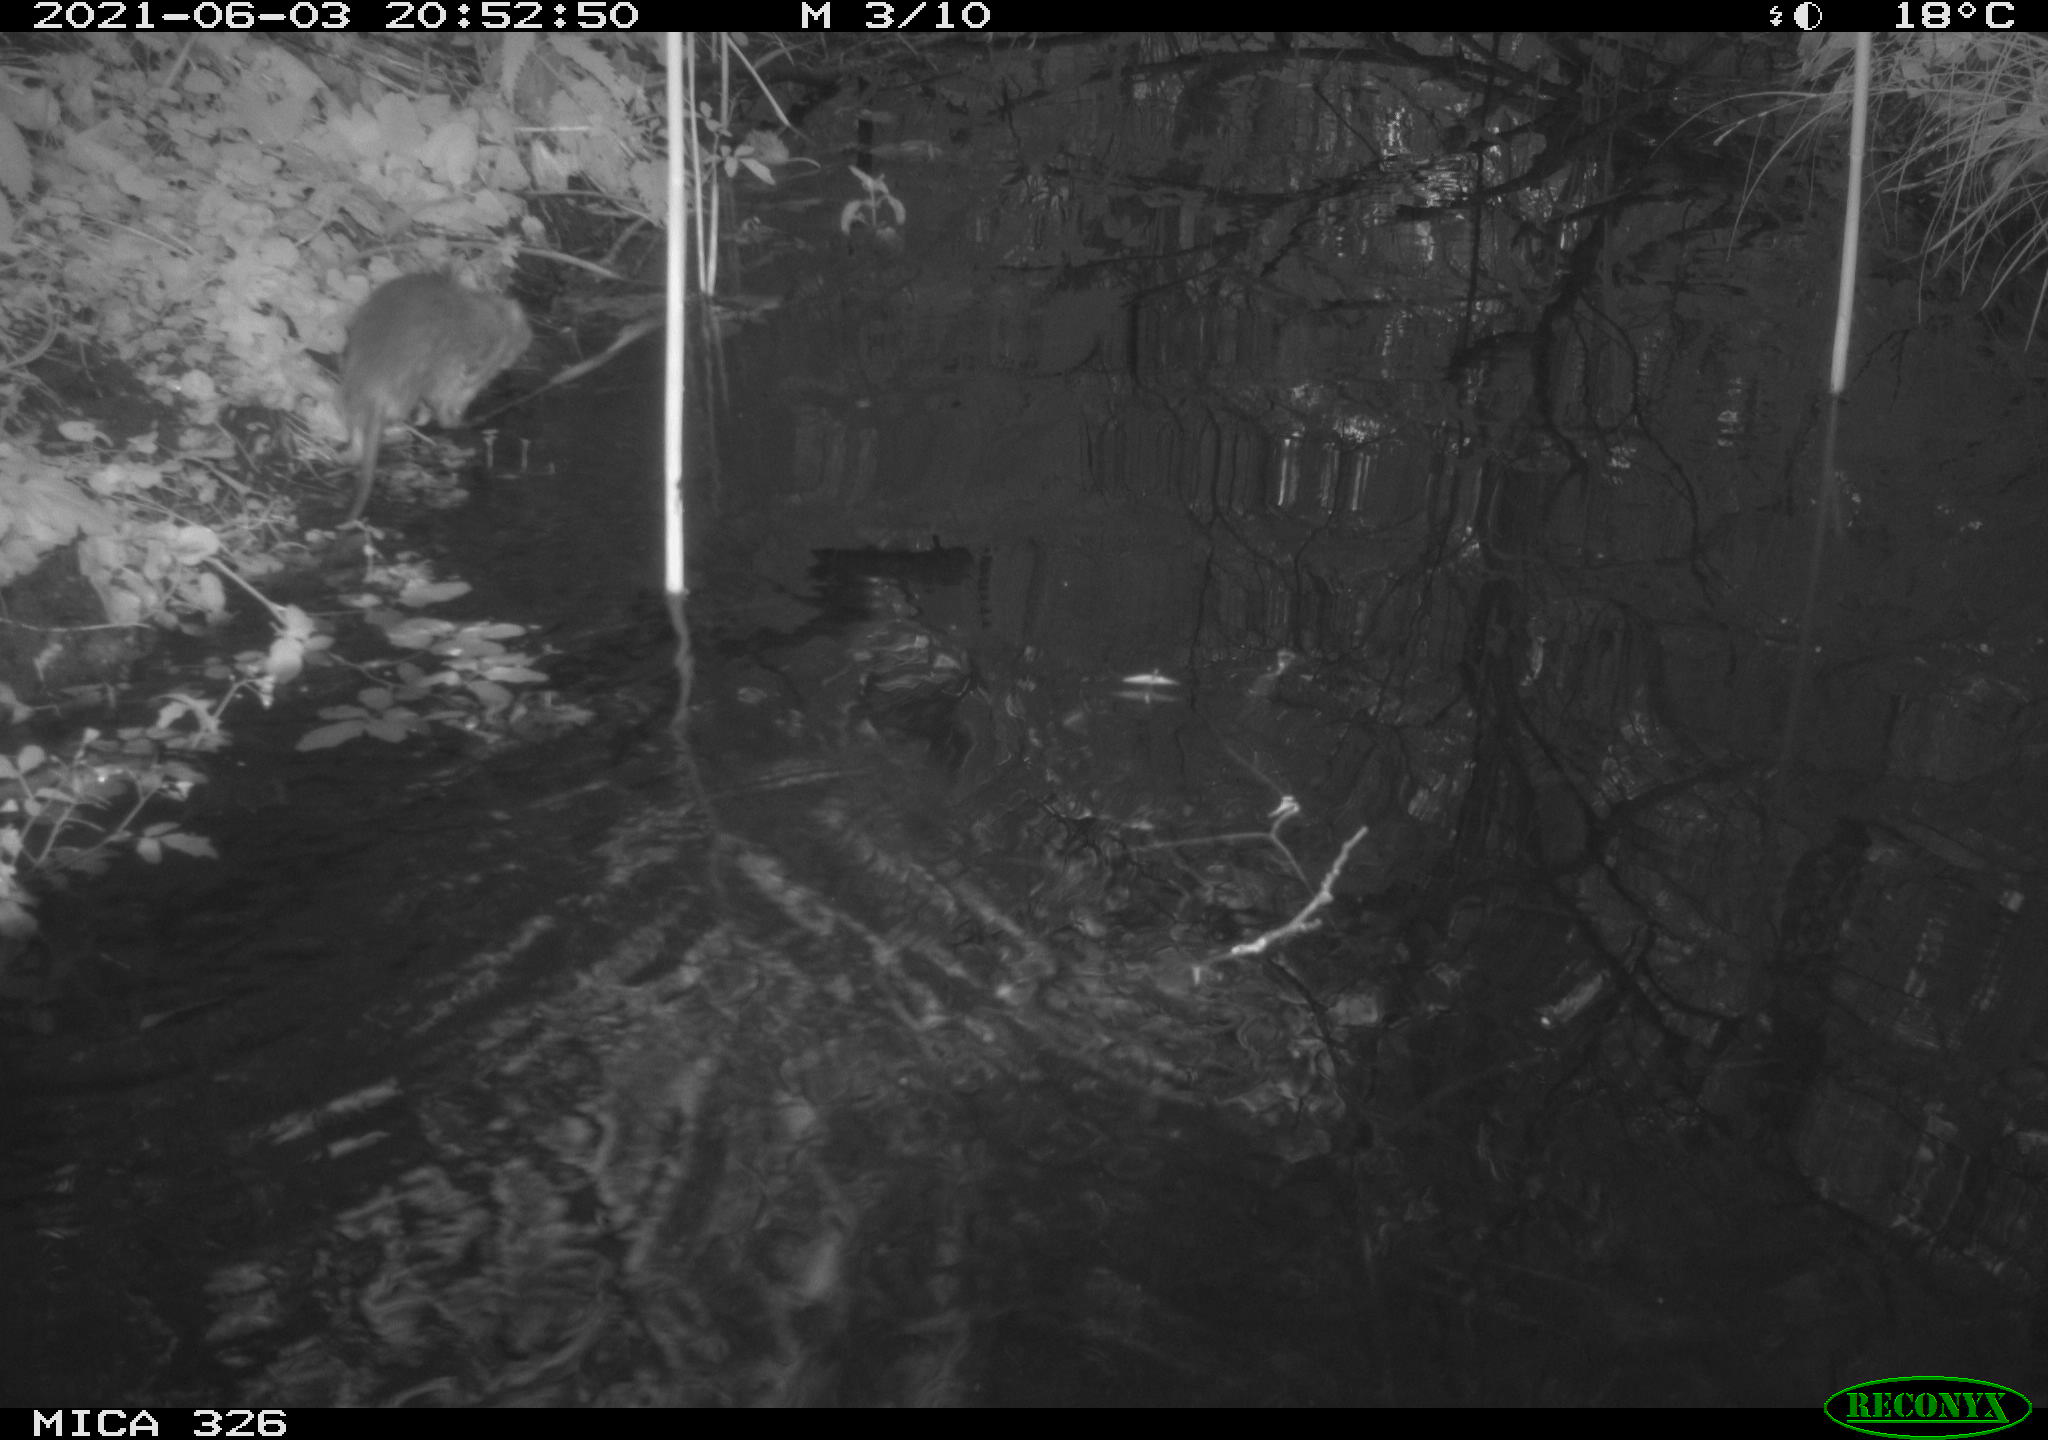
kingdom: Animalia
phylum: Chordata
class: Mammalia
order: Rodentia
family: Muridae
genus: Rattus
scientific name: Rattus norvegicus
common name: Brown rat
